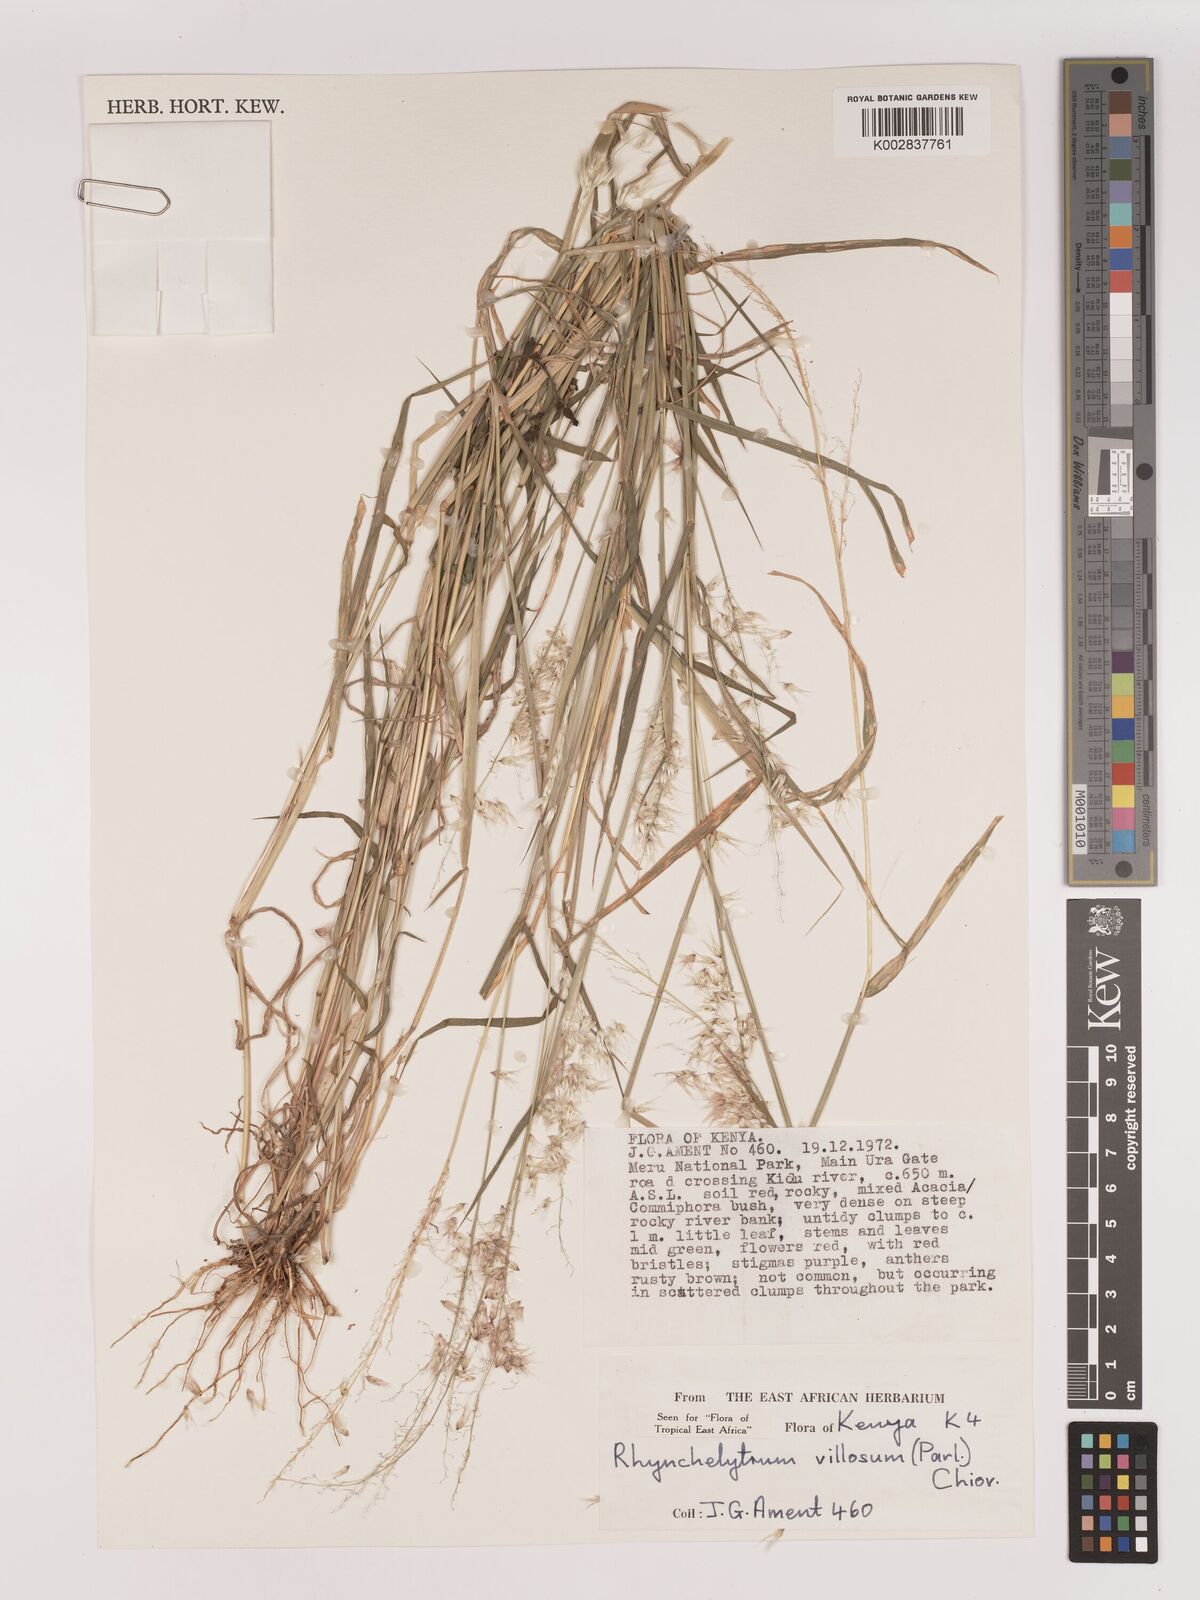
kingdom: Plantae
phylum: Tracheophyta
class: Liliopsida
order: Poales
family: Poaceae
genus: Melinis
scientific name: Melinis repens
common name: Rose natal grass
